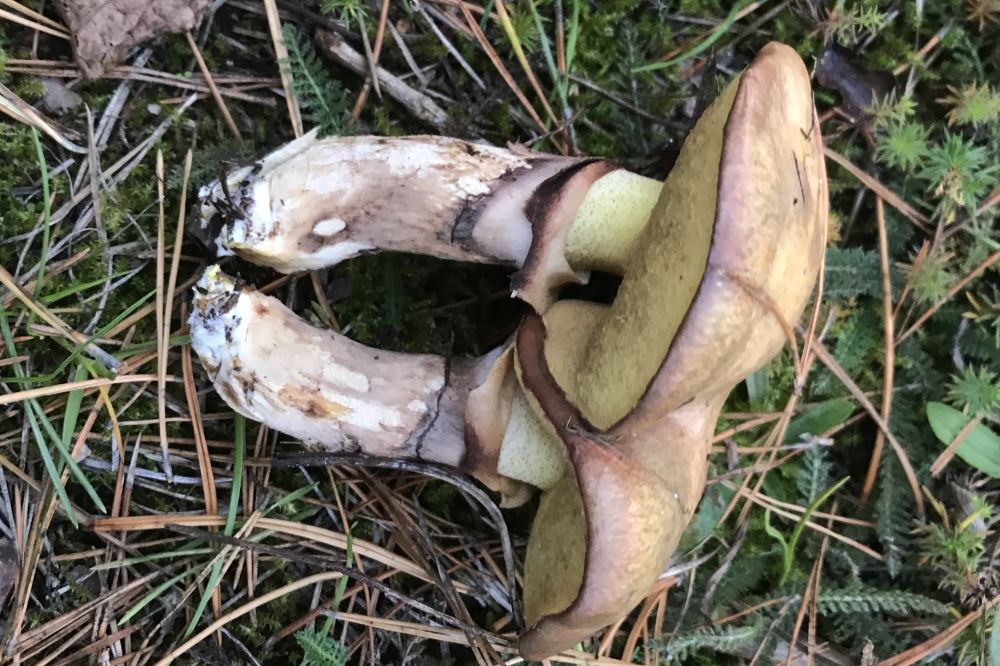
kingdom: Fungi
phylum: Basidiomycota
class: Agaricomycetes
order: Boletales
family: Suillaceae
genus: Suillus
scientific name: Suillus luteus
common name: brungul slimrørhat
